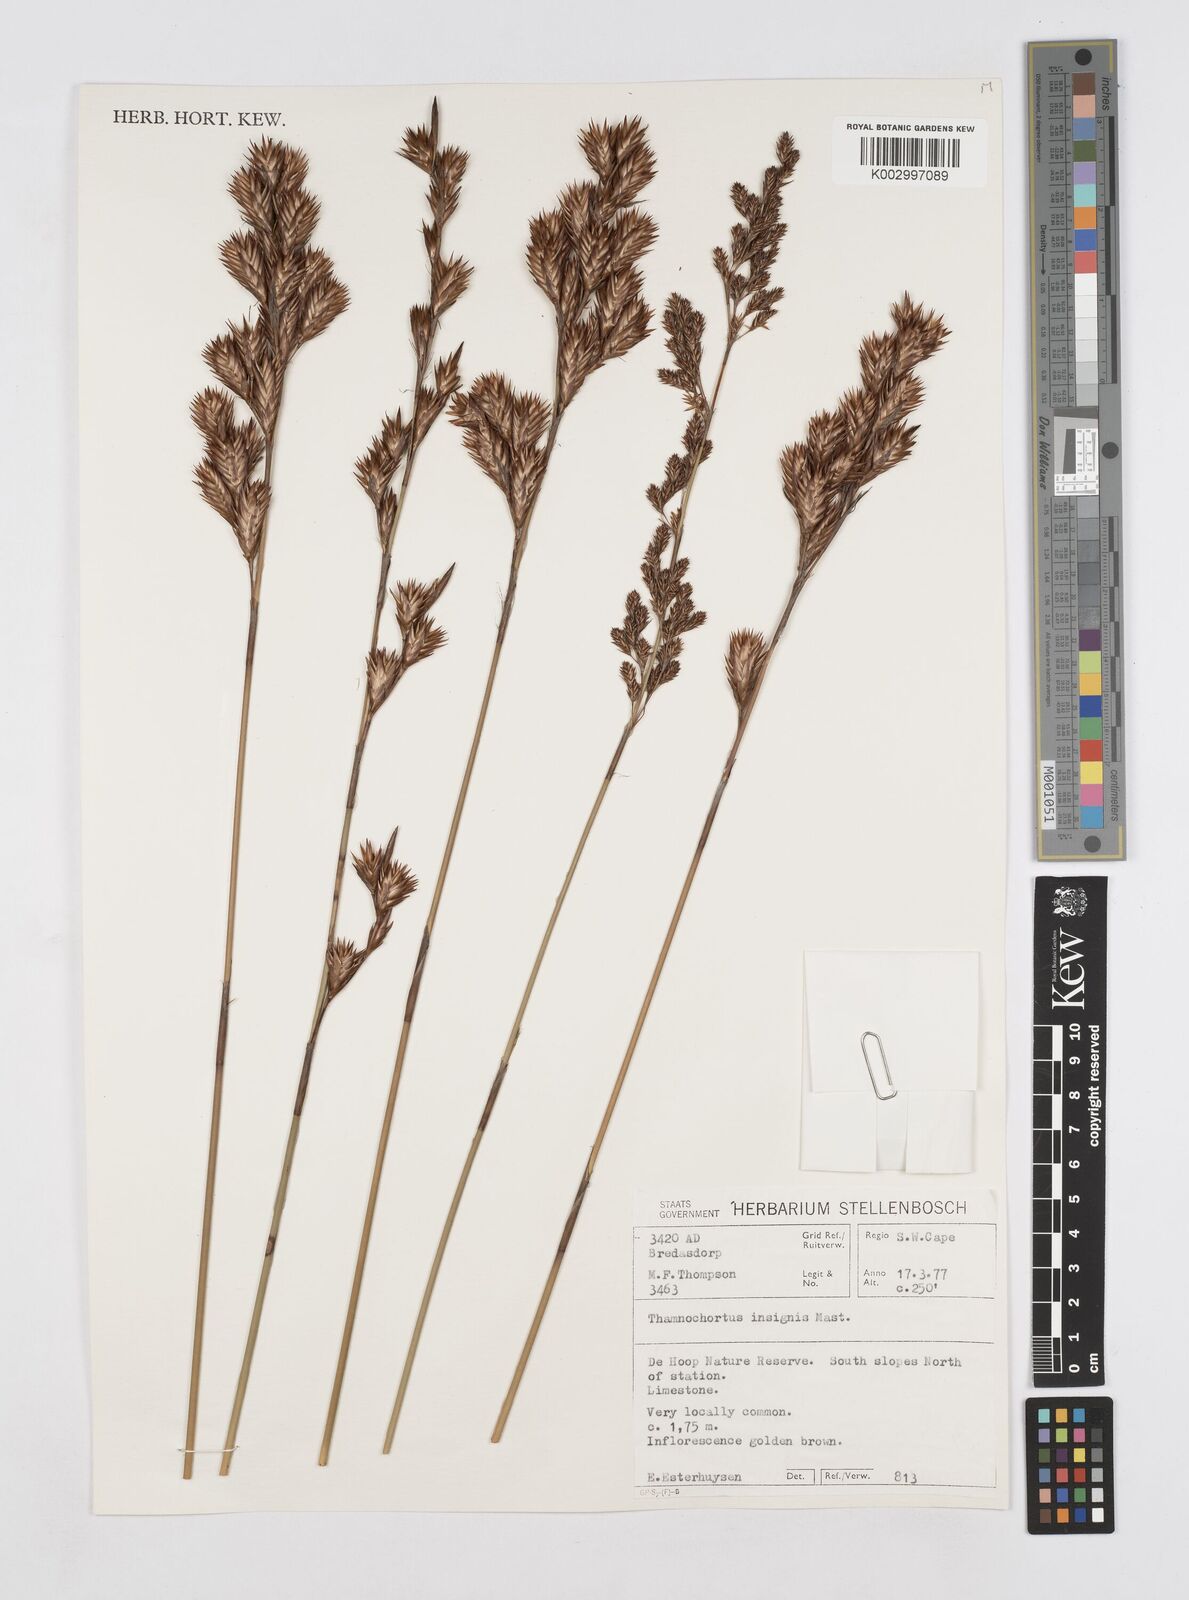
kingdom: Plantae
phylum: Tracheophyta
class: Liliopsida
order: Poales
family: Restionaceae
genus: Thamnochortus
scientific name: Thamnochortus insignis
